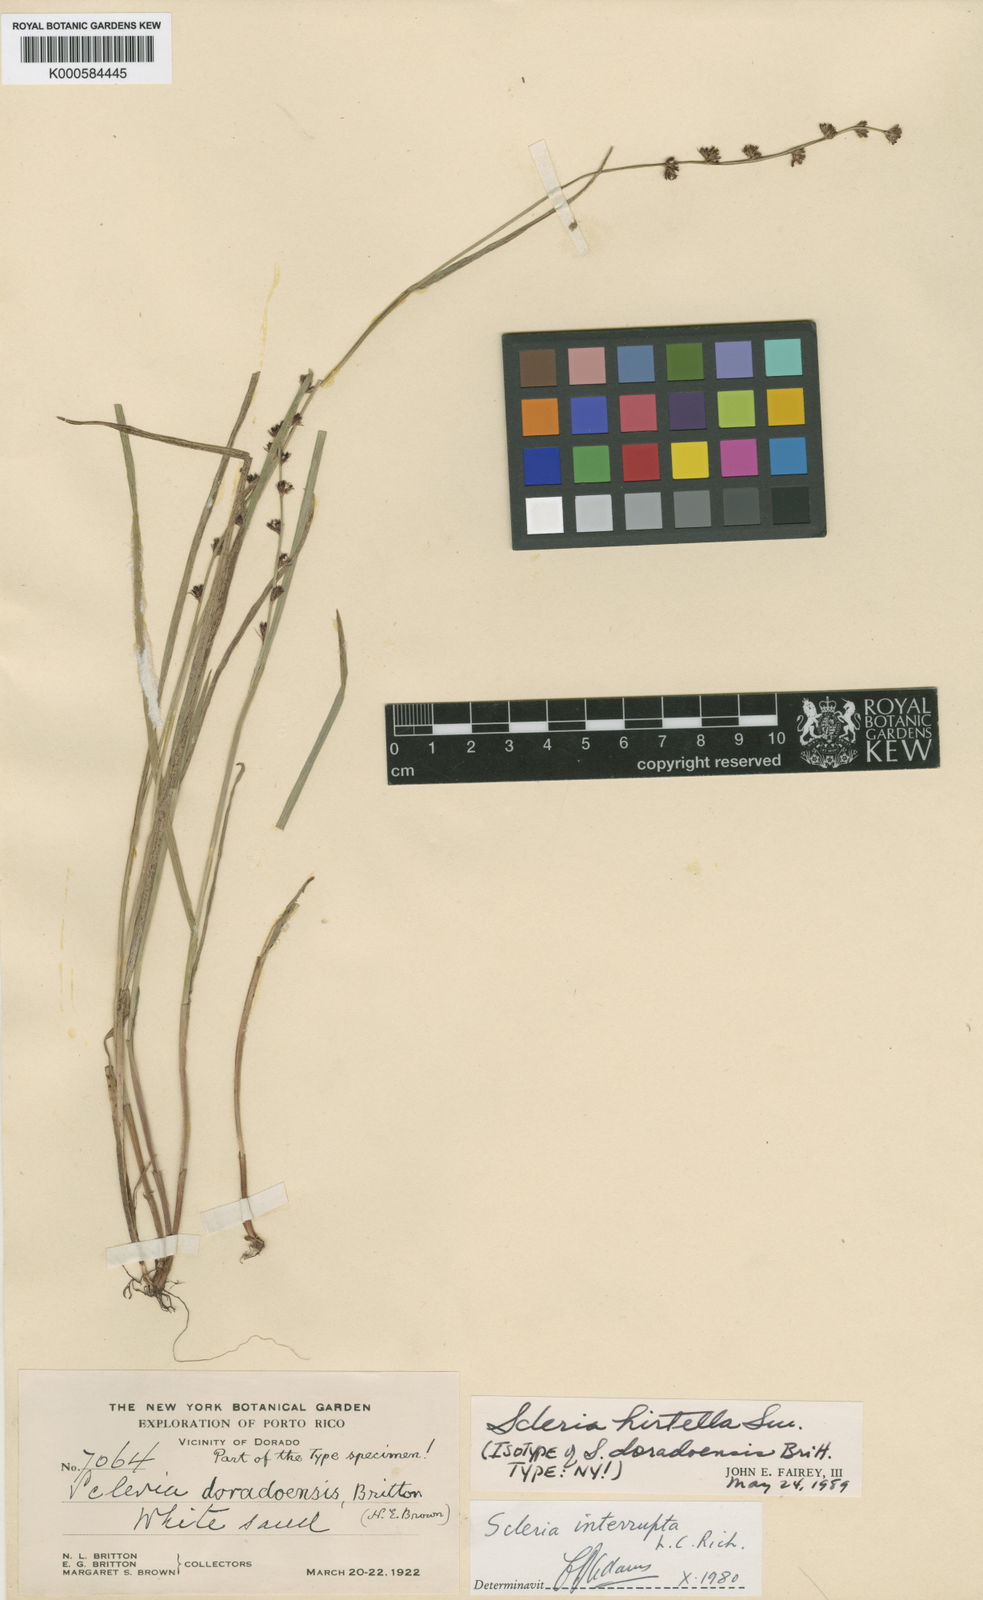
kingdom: Plantae
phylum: Tracheophyta
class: Liliopsida
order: Poales
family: Cyperaceae
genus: Scleria
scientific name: Scleria hirtella
